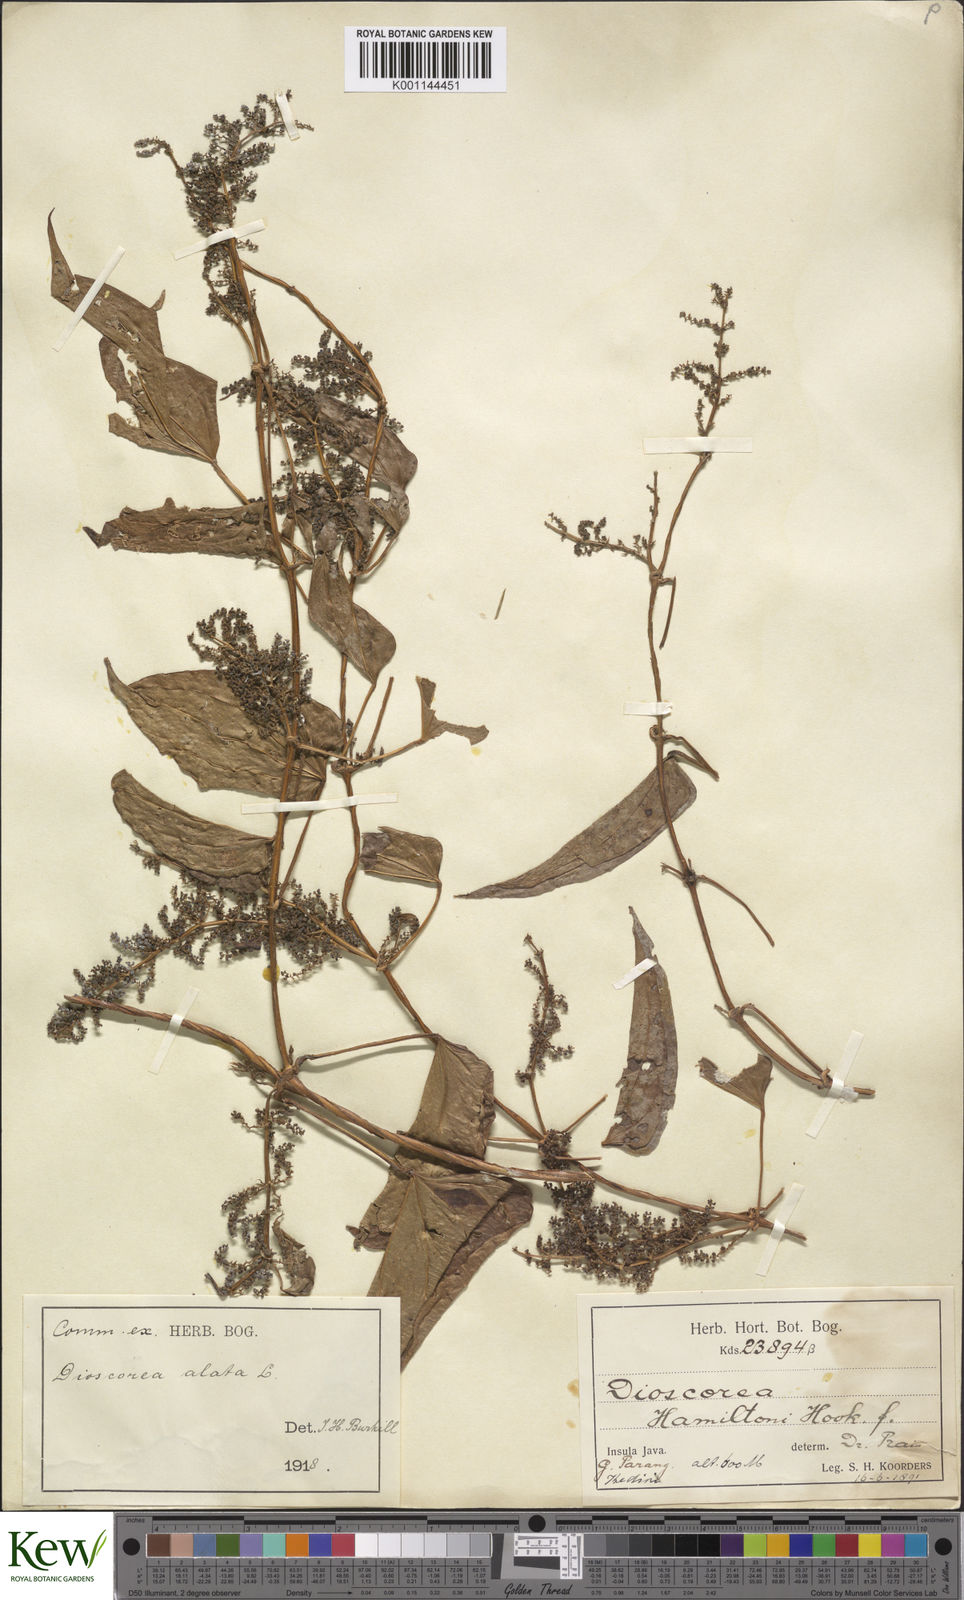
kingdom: Plantae
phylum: Tracheophyta
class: Liliopsida
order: Dioscoreales
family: Dioscoreaceae
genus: Dioscorea
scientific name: Dioscorea alata
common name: Water yam
